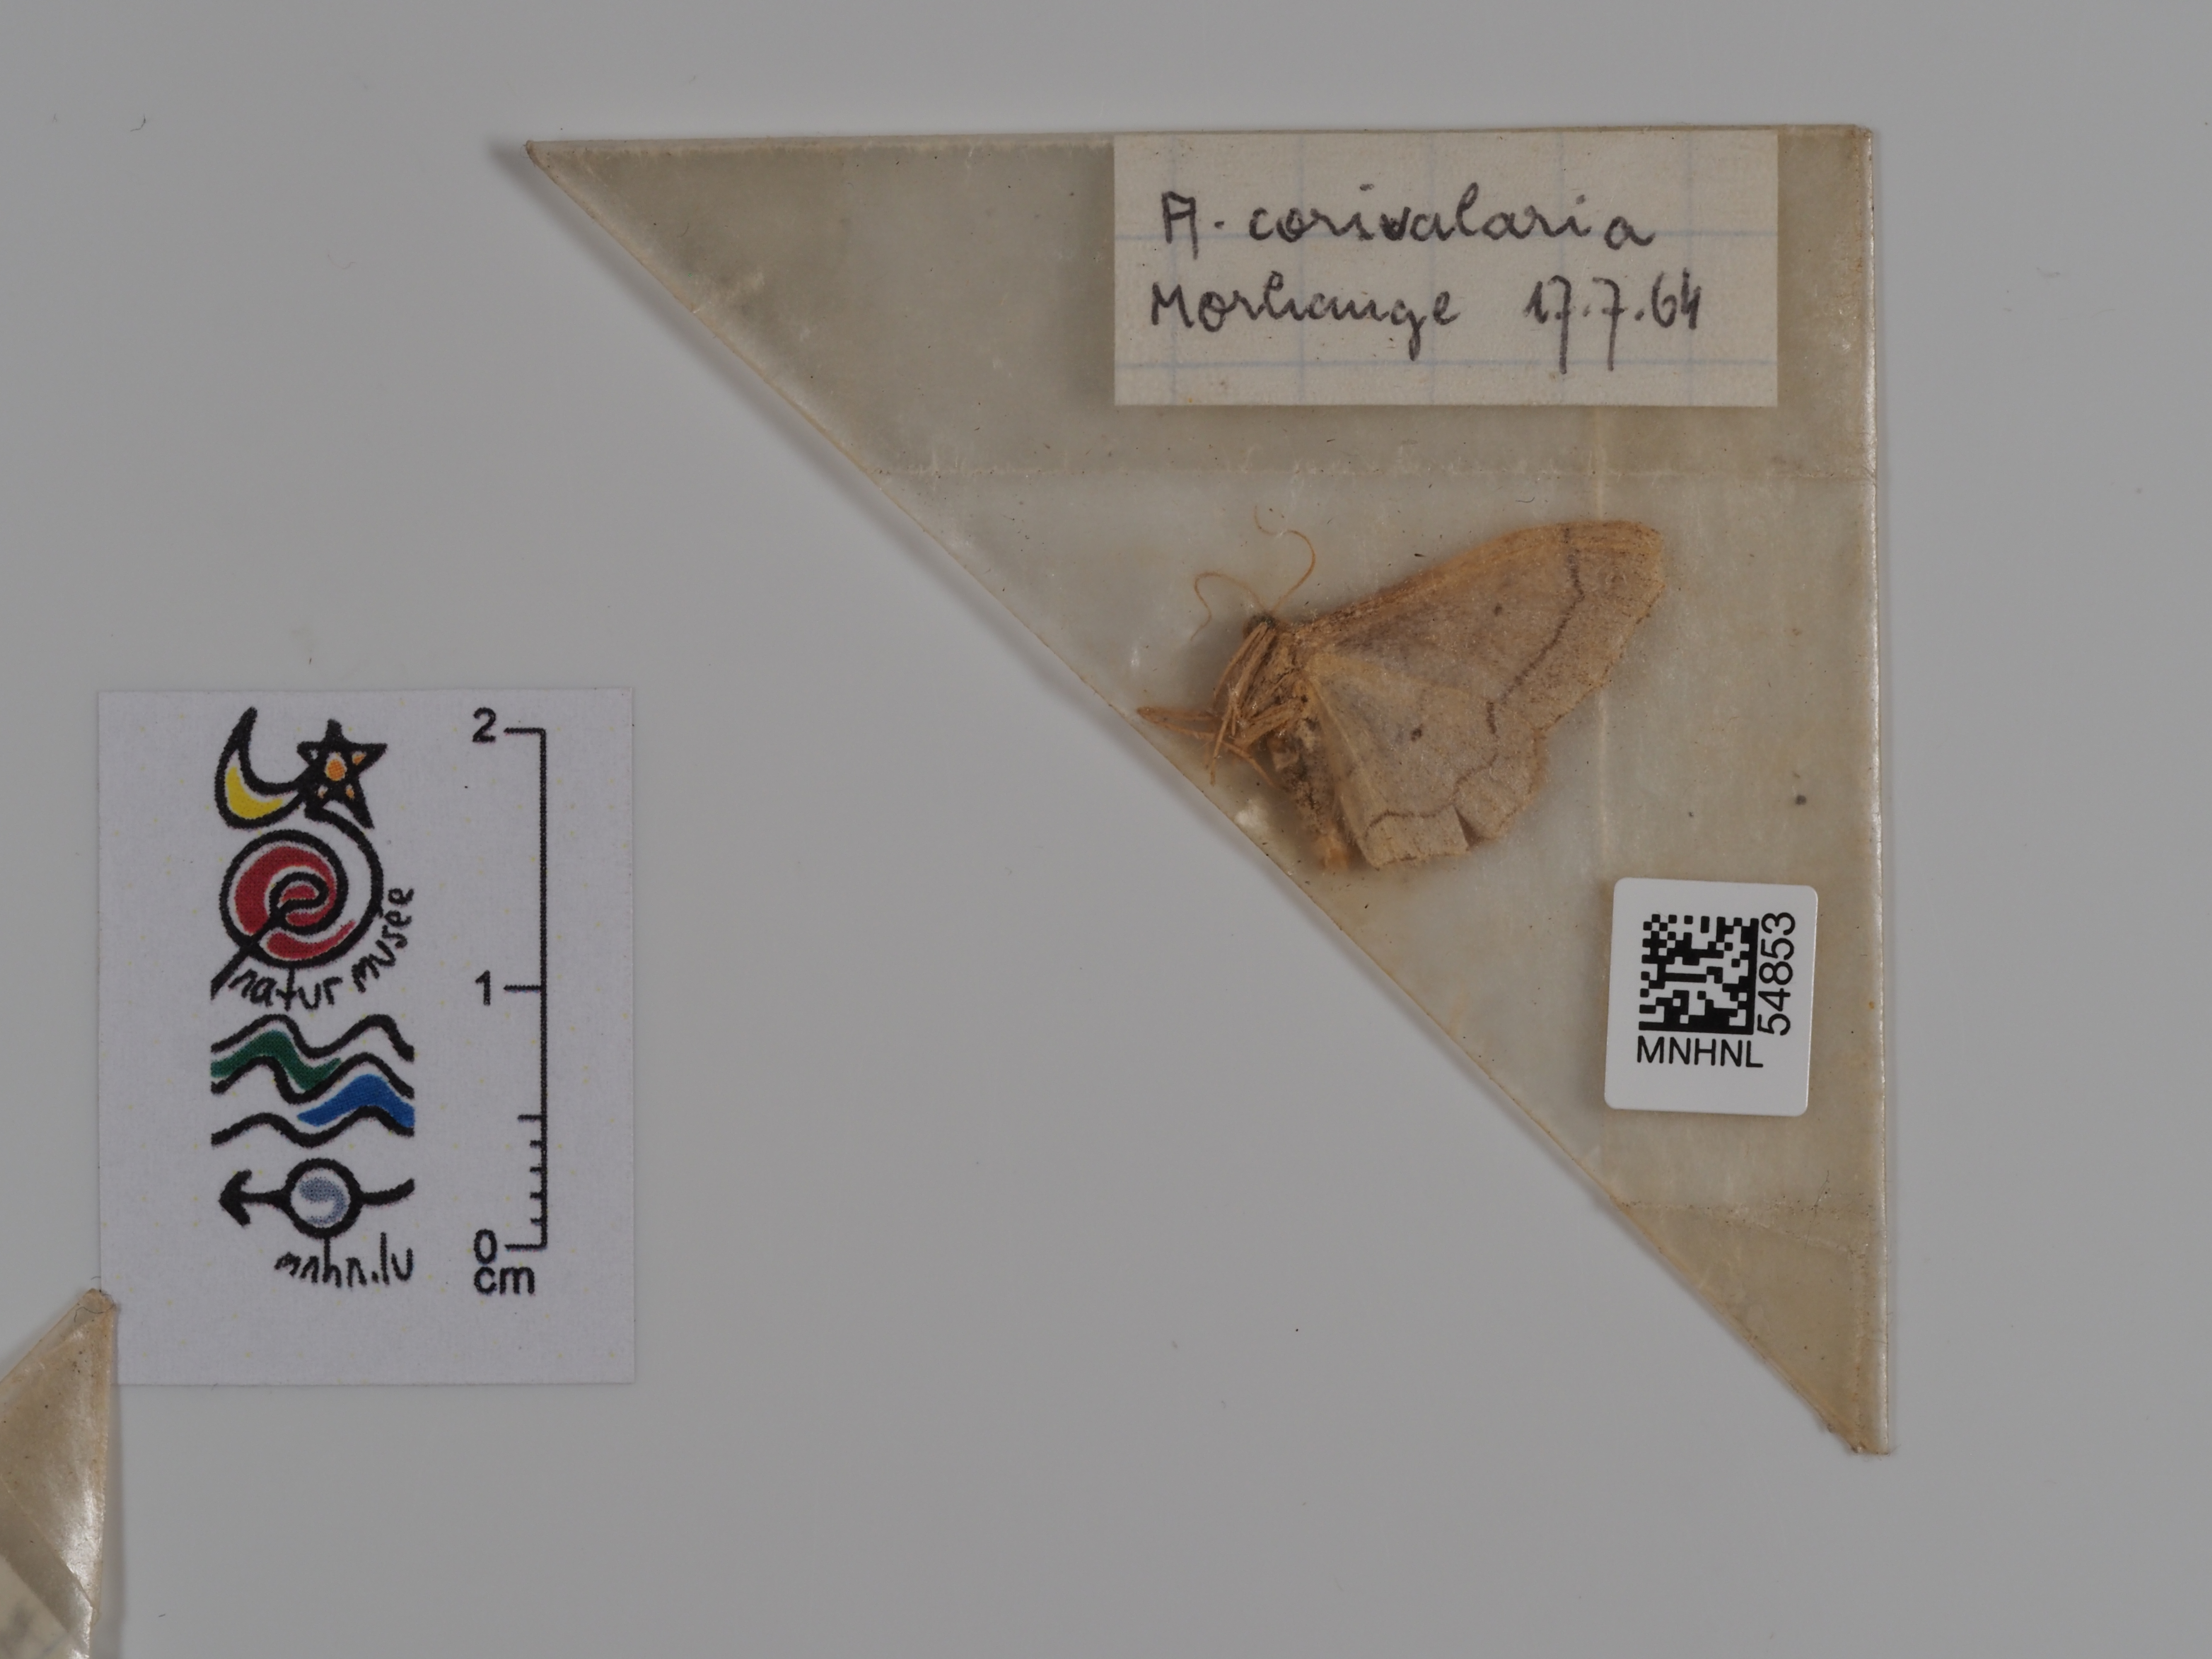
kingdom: Animalia
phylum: Arthropoda
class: Insecta
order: Lepidoptera
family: Geometridae
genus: Scopula
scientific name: Scopula corrivalaria
